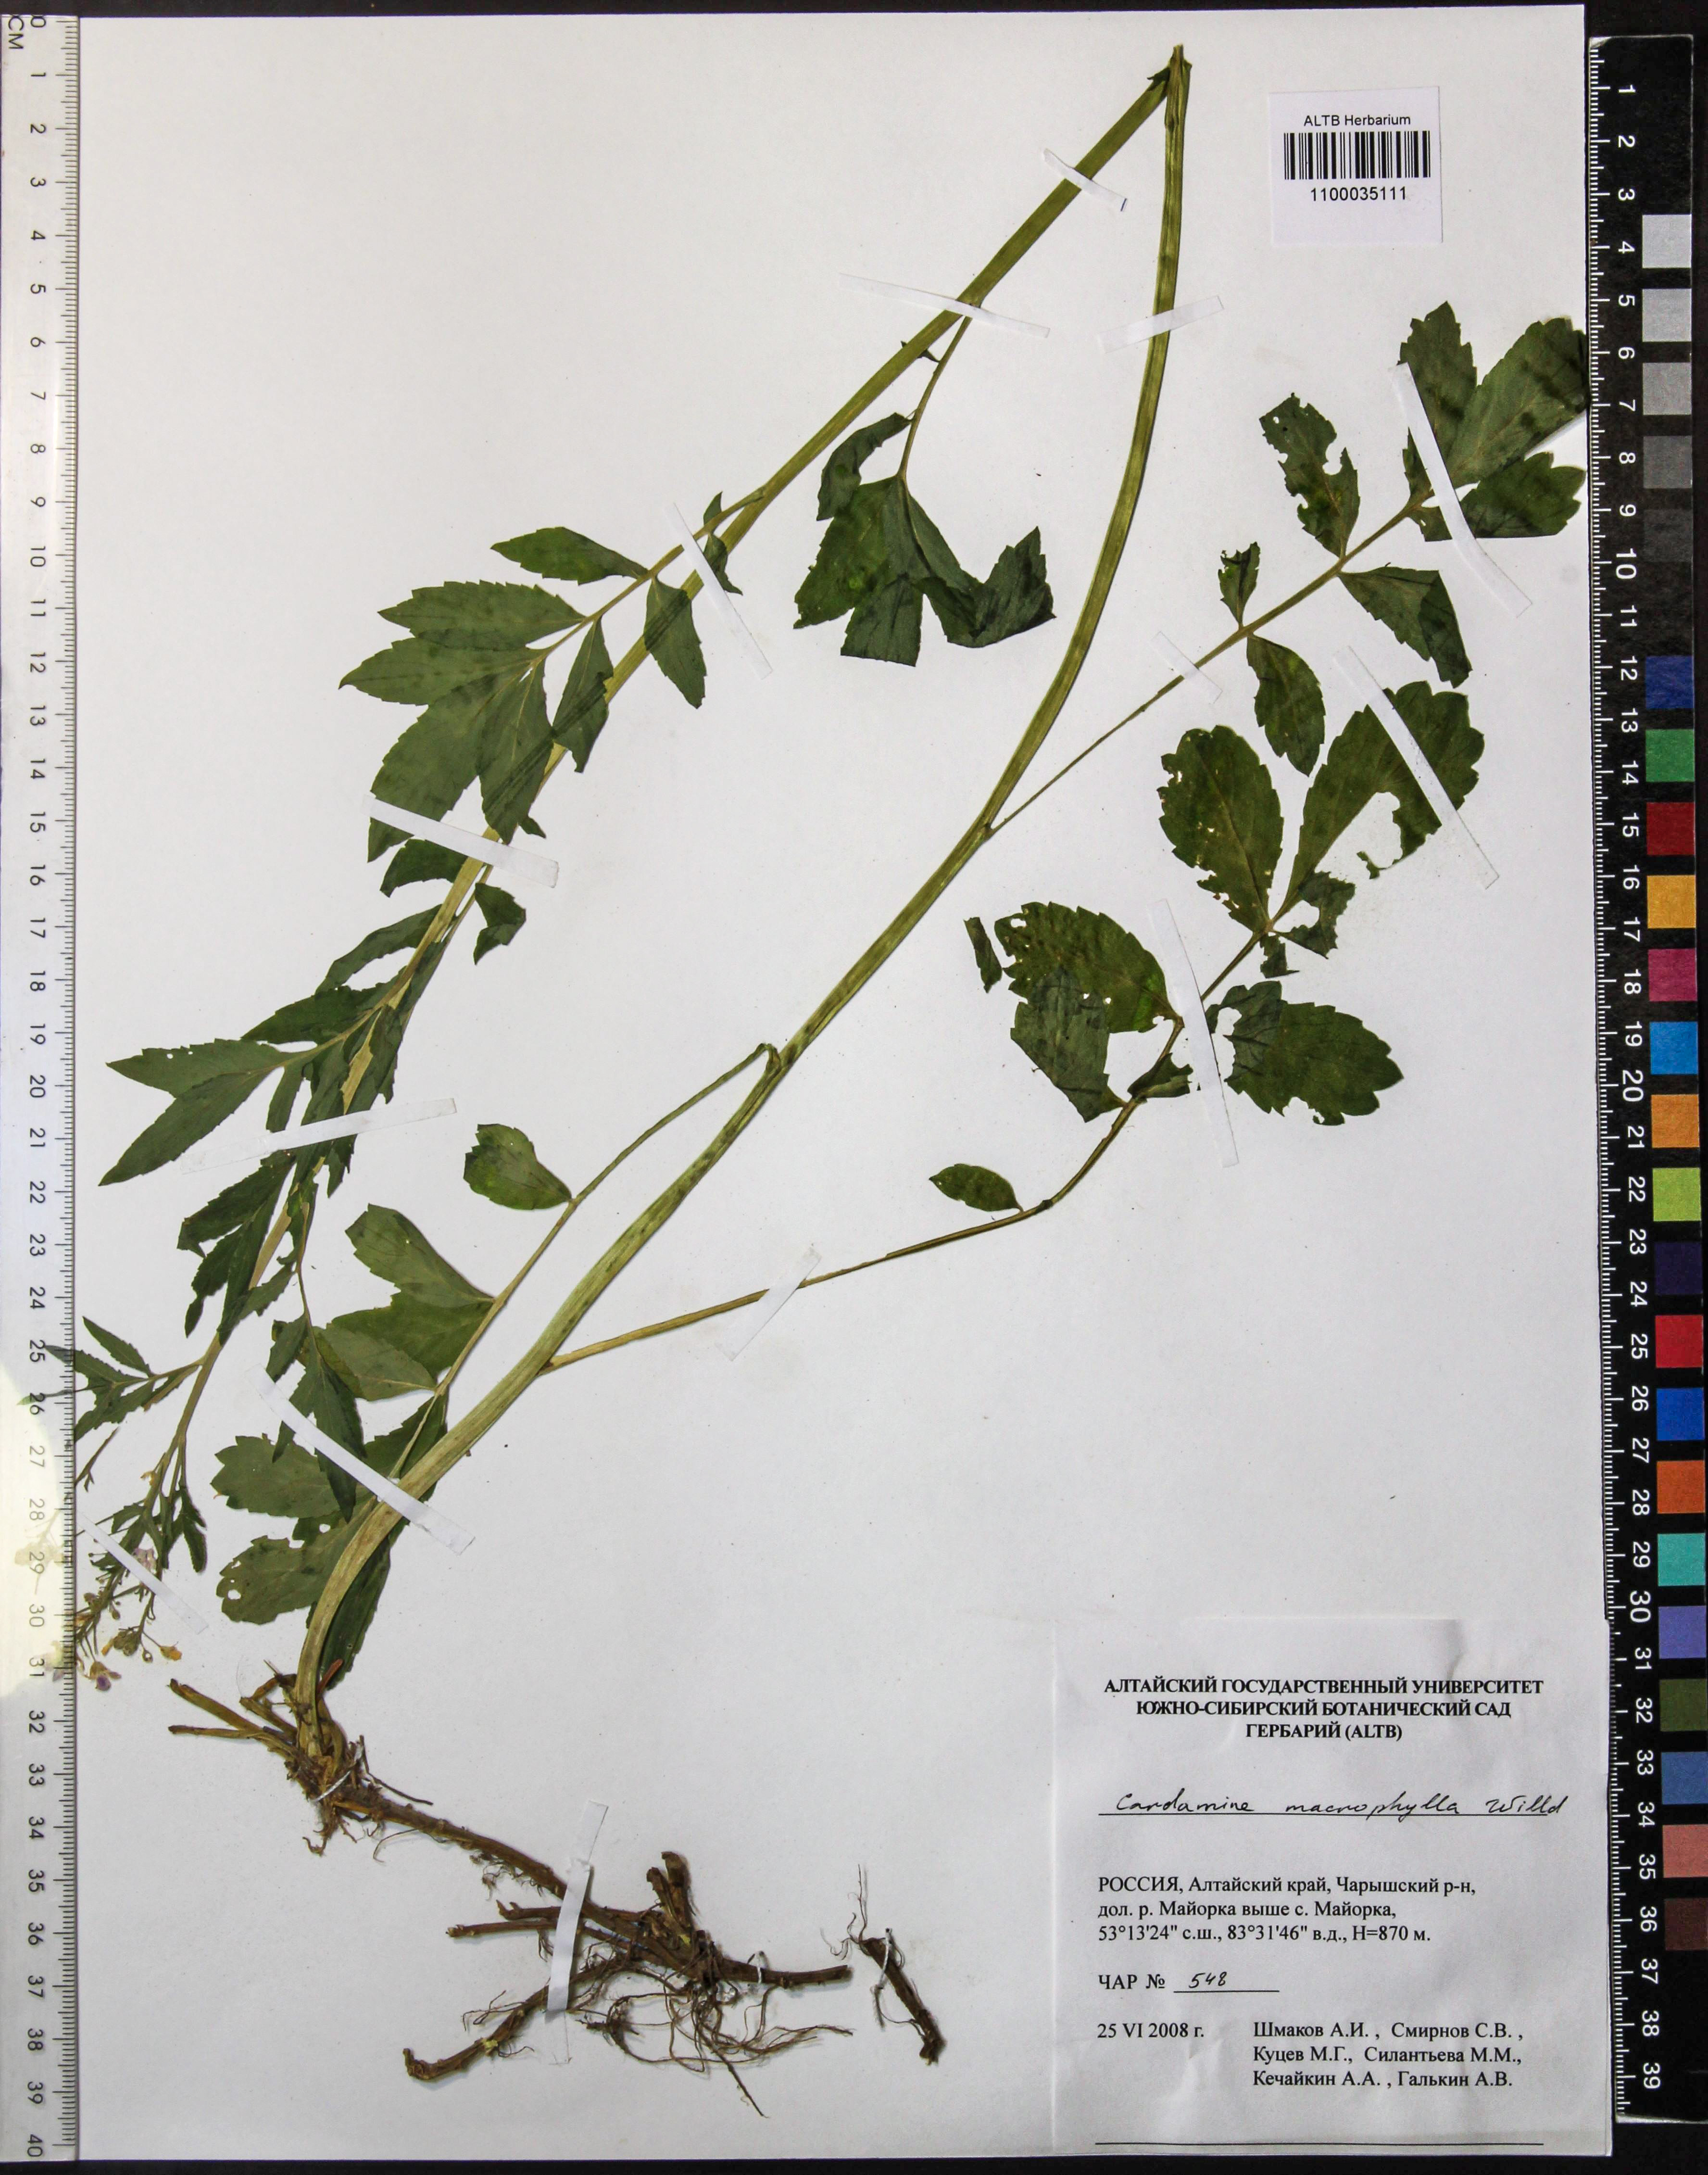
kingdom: Plantae
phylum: Tracheophyta
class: Magnoliopsida
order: Brassicales
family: Brassicaceae
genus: Cardamine
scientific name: Cardamine macrophylla
